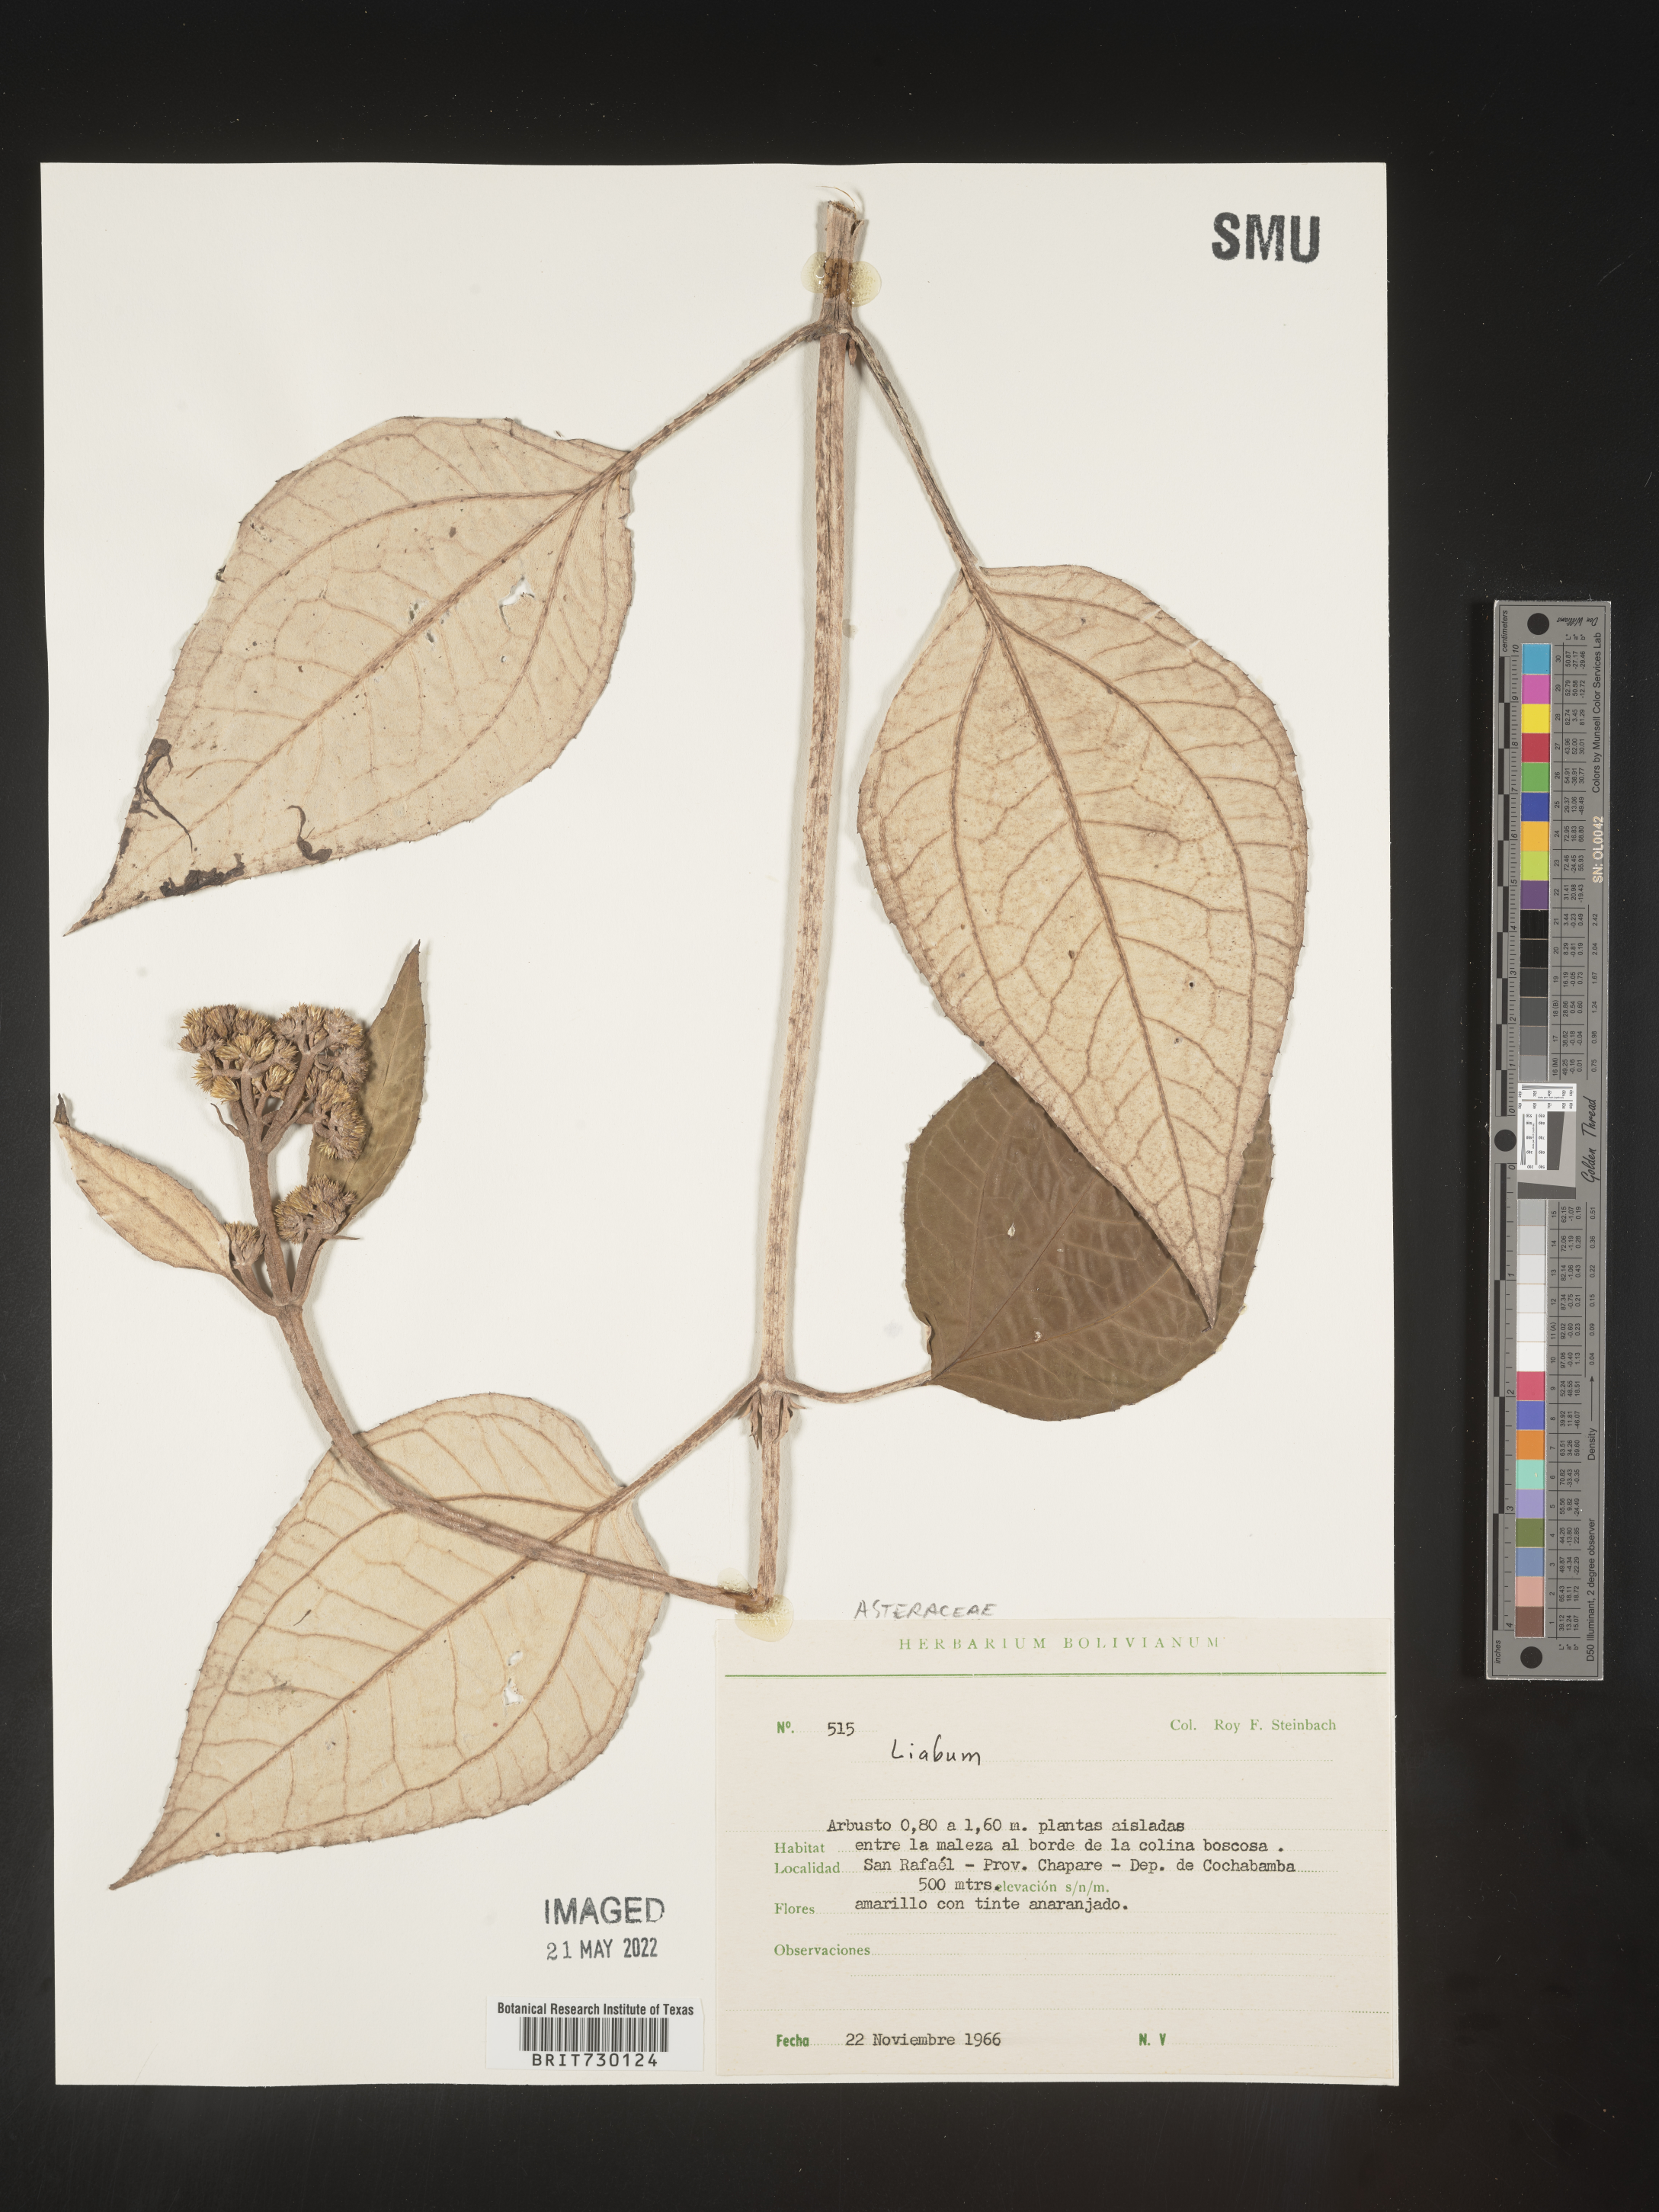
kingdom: Plantae
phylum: Tracheophyta
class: Magnoliopsida
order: Asterales
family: Asteraceae
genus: Liabum
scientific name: Liabum
